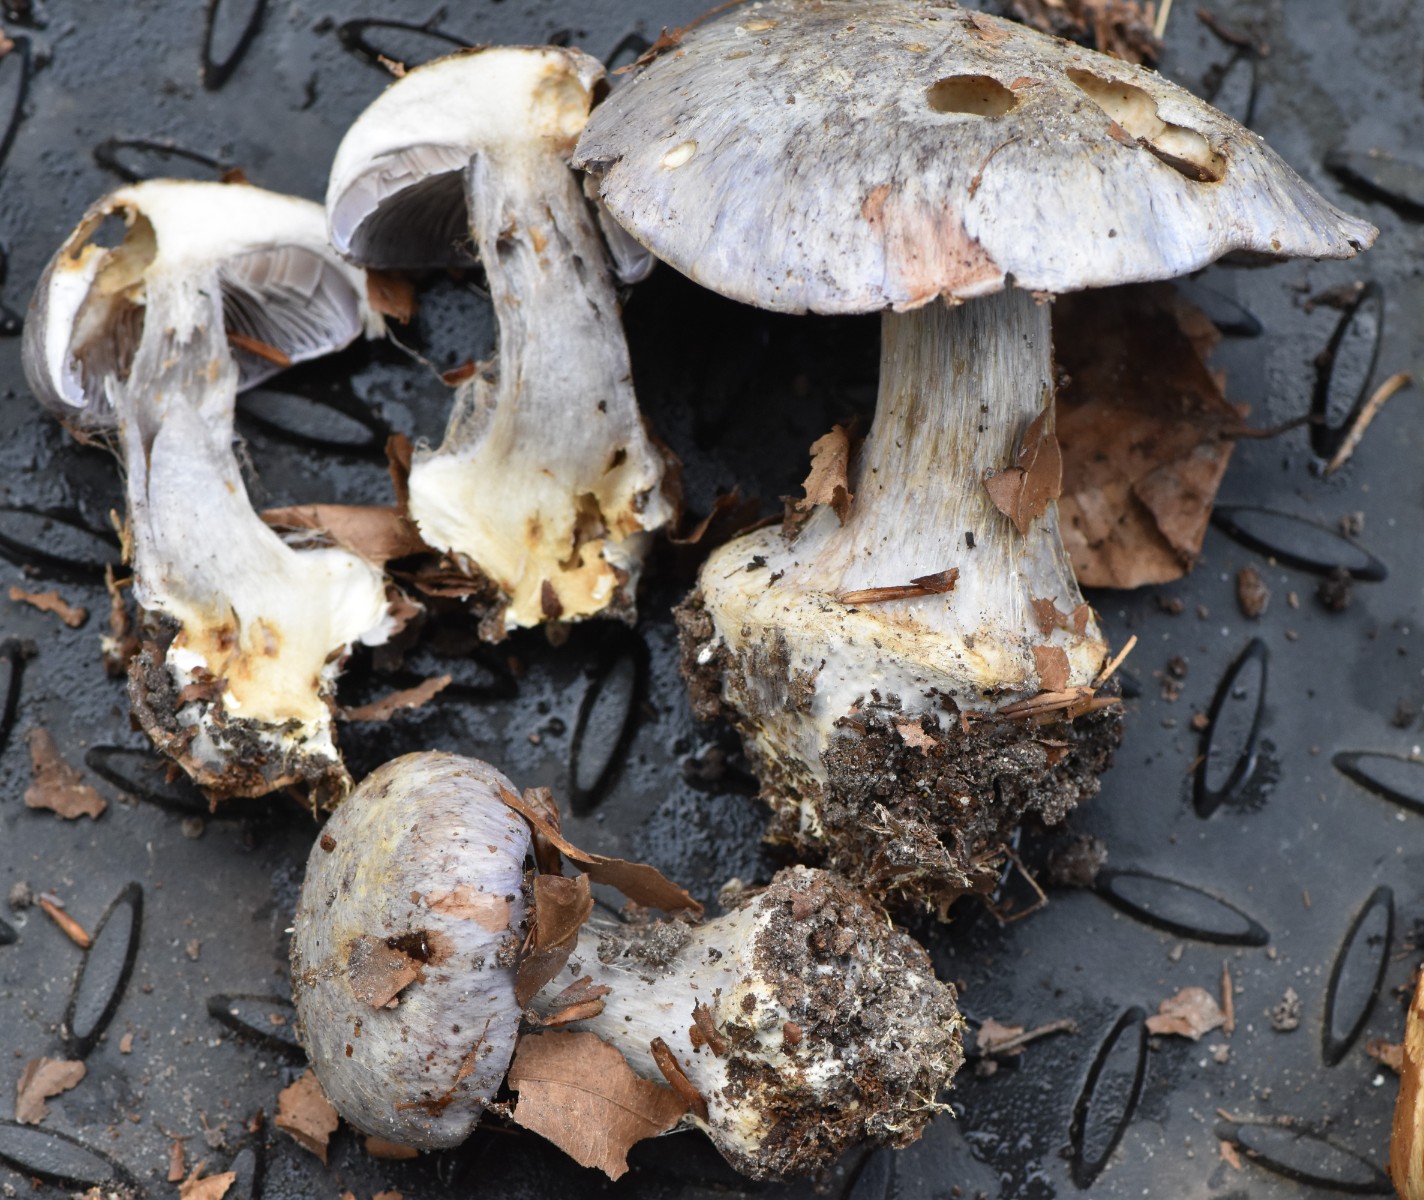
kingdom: Fungi
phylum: Basidiomycota
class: Agaricomycetes
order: Agaricales
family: Cortinariaceae
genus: Cortinarius
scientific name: Cortinarius caerulescens
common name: blåkødet slørhat
